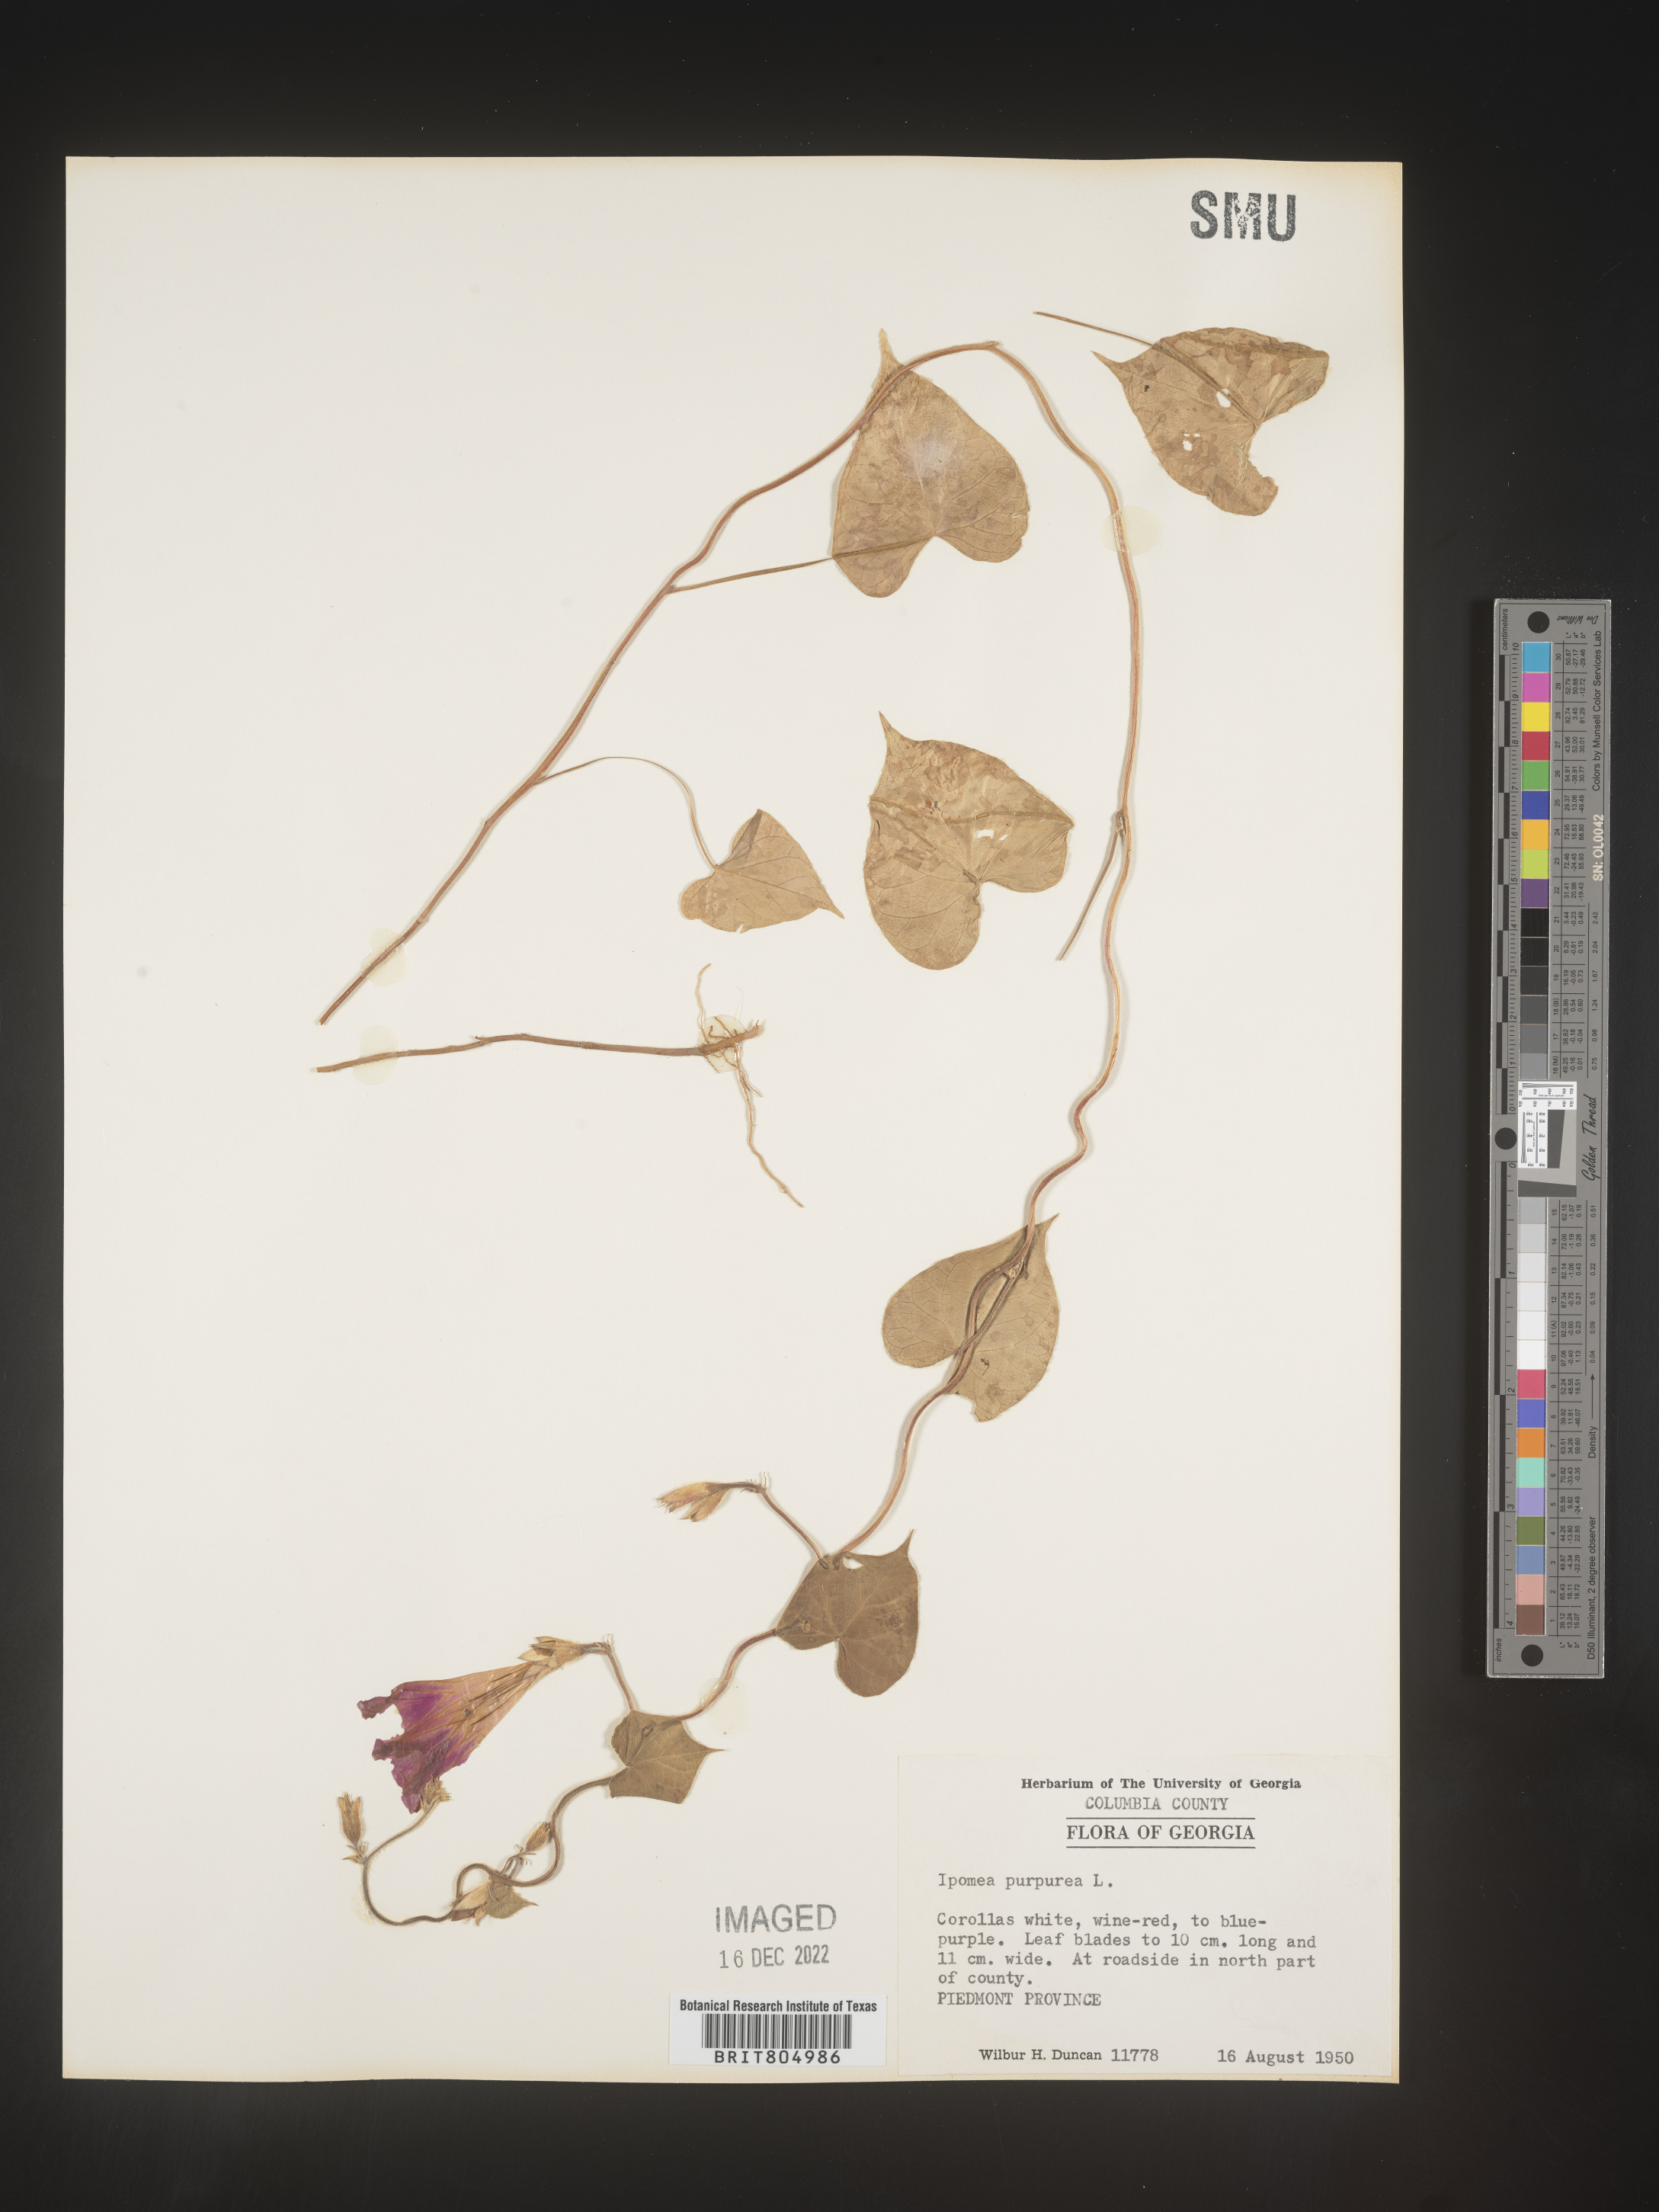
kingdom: Plantae
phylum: Tracheophyta
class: Magnoliopsida
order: Solanales
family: Convolvulaceae
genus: Ipomoea
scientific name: Ipomoea purpurea
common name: Common morning-glory
